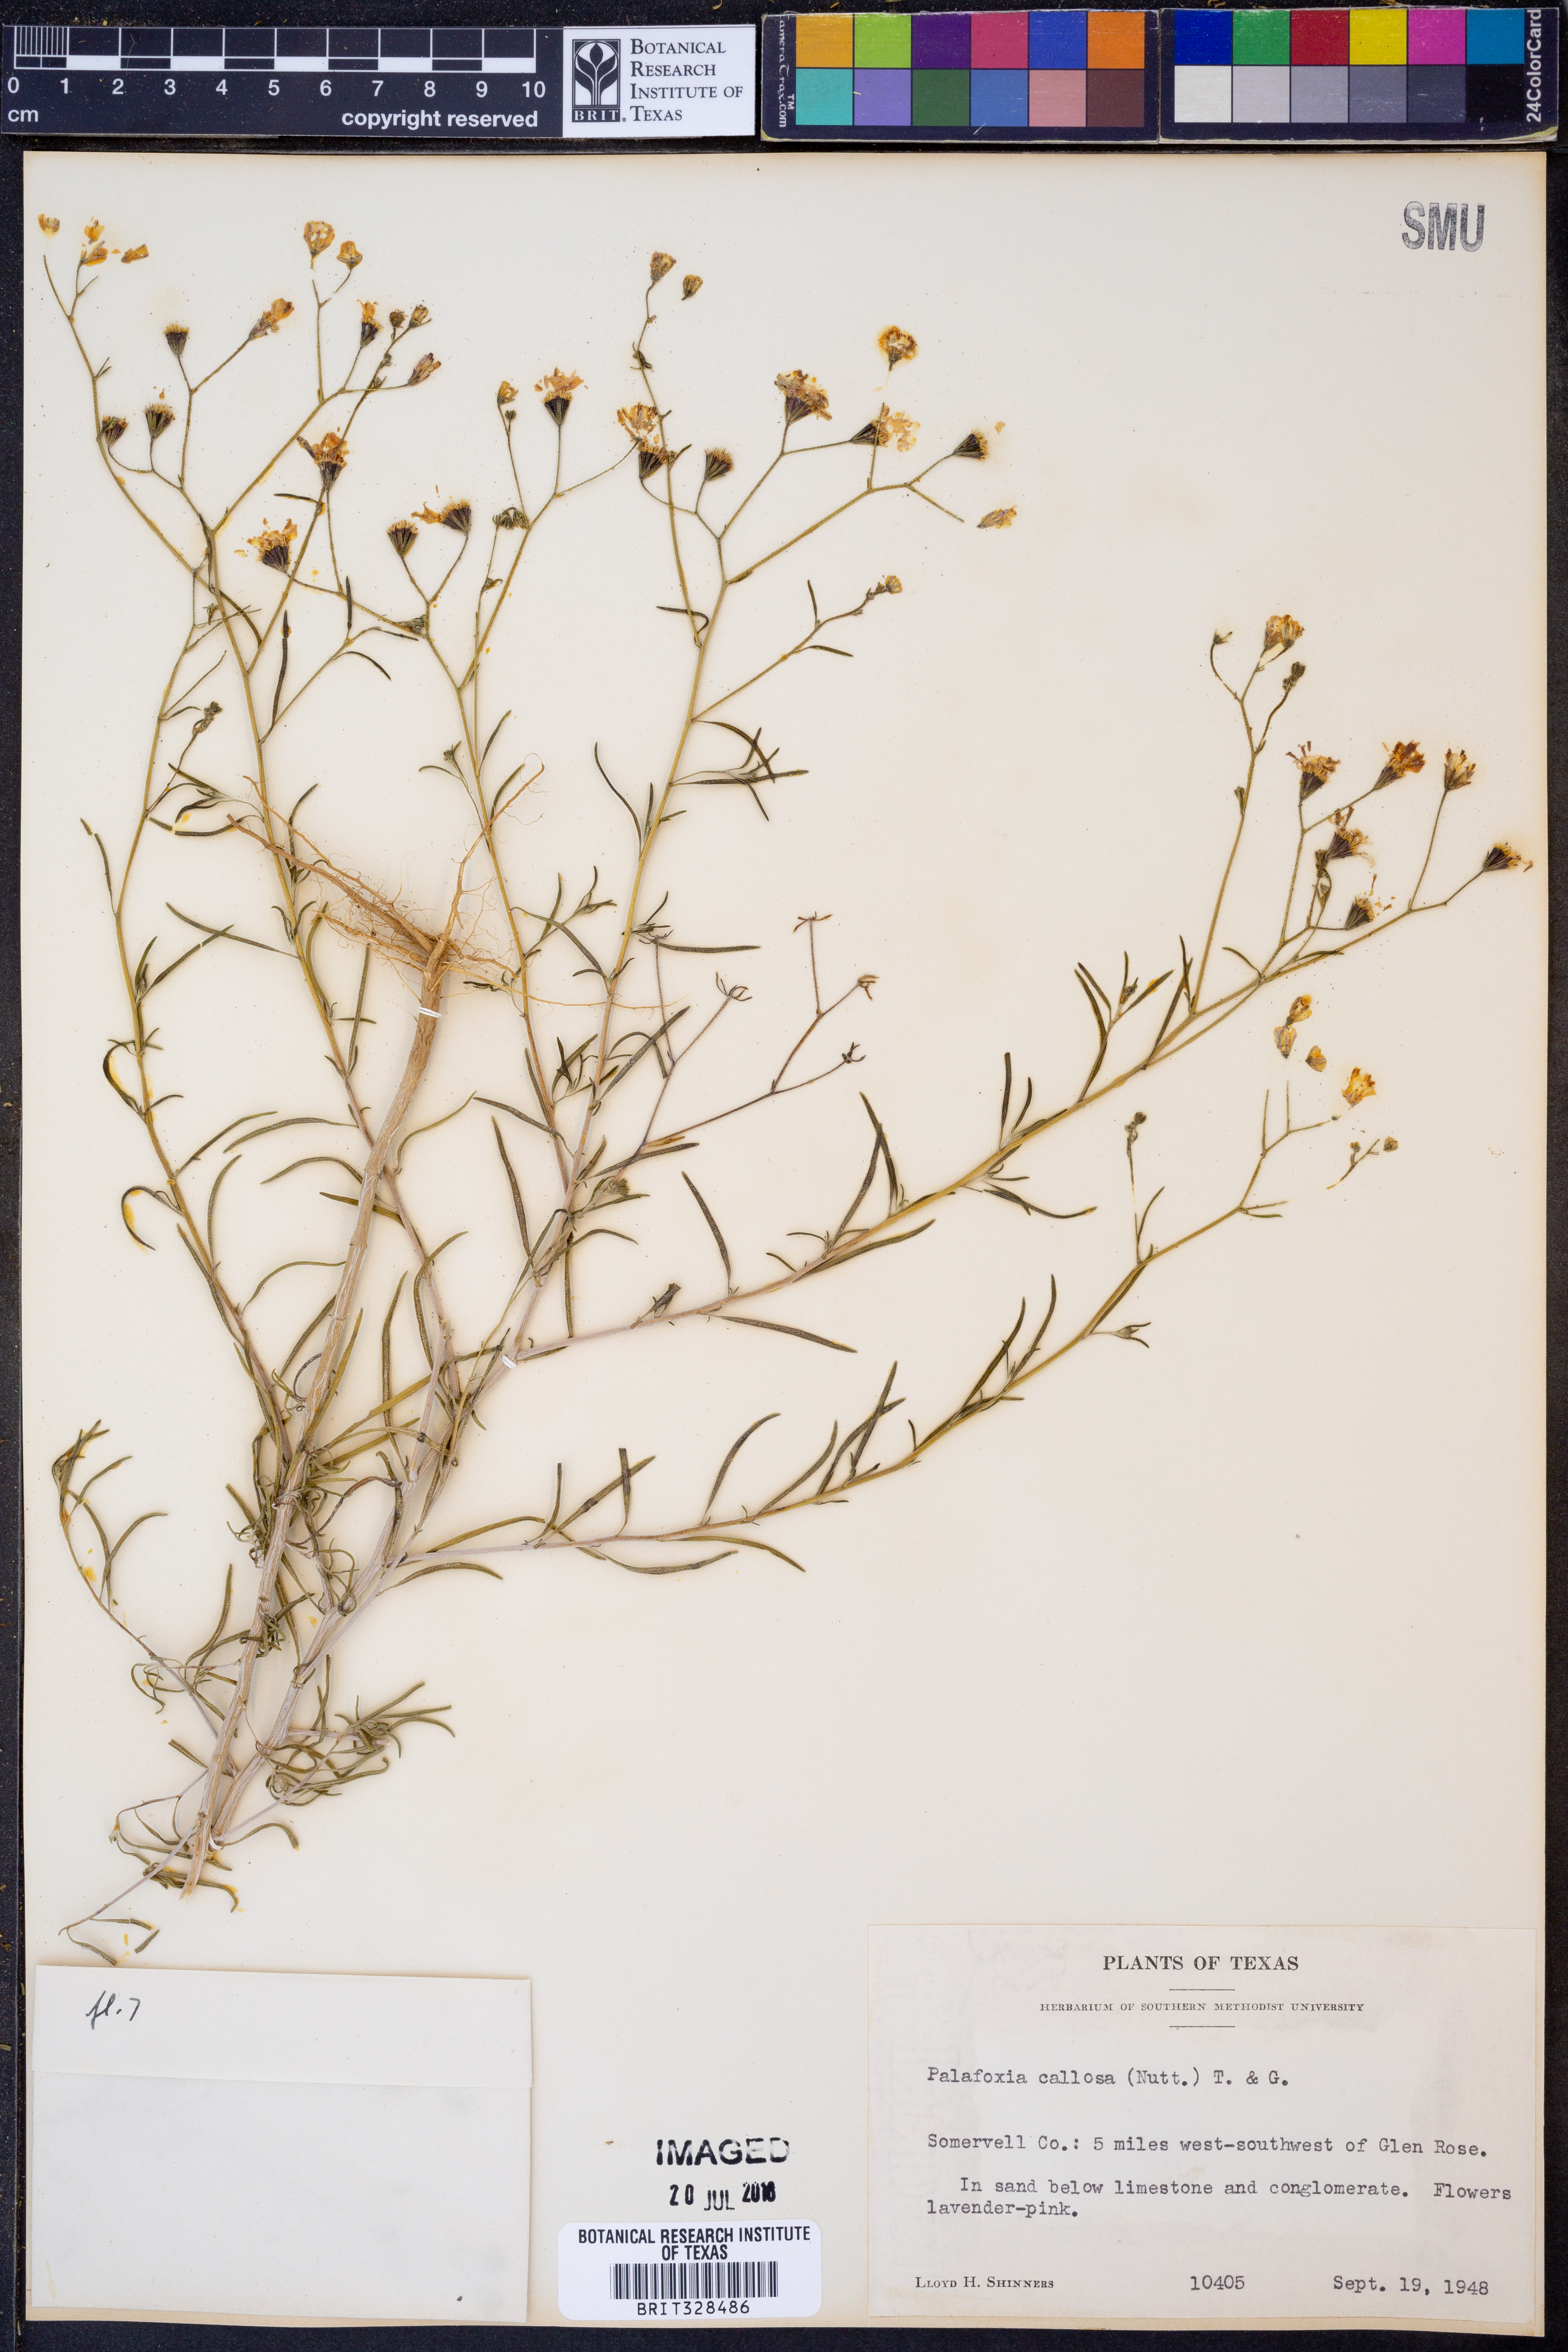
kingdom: Plantae
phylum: Tracheophyta
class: Magnoliopsida
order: Asterales
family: Asteraceae
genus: Palafoxia
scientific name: Palafoxia callosa
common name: Small palafox
